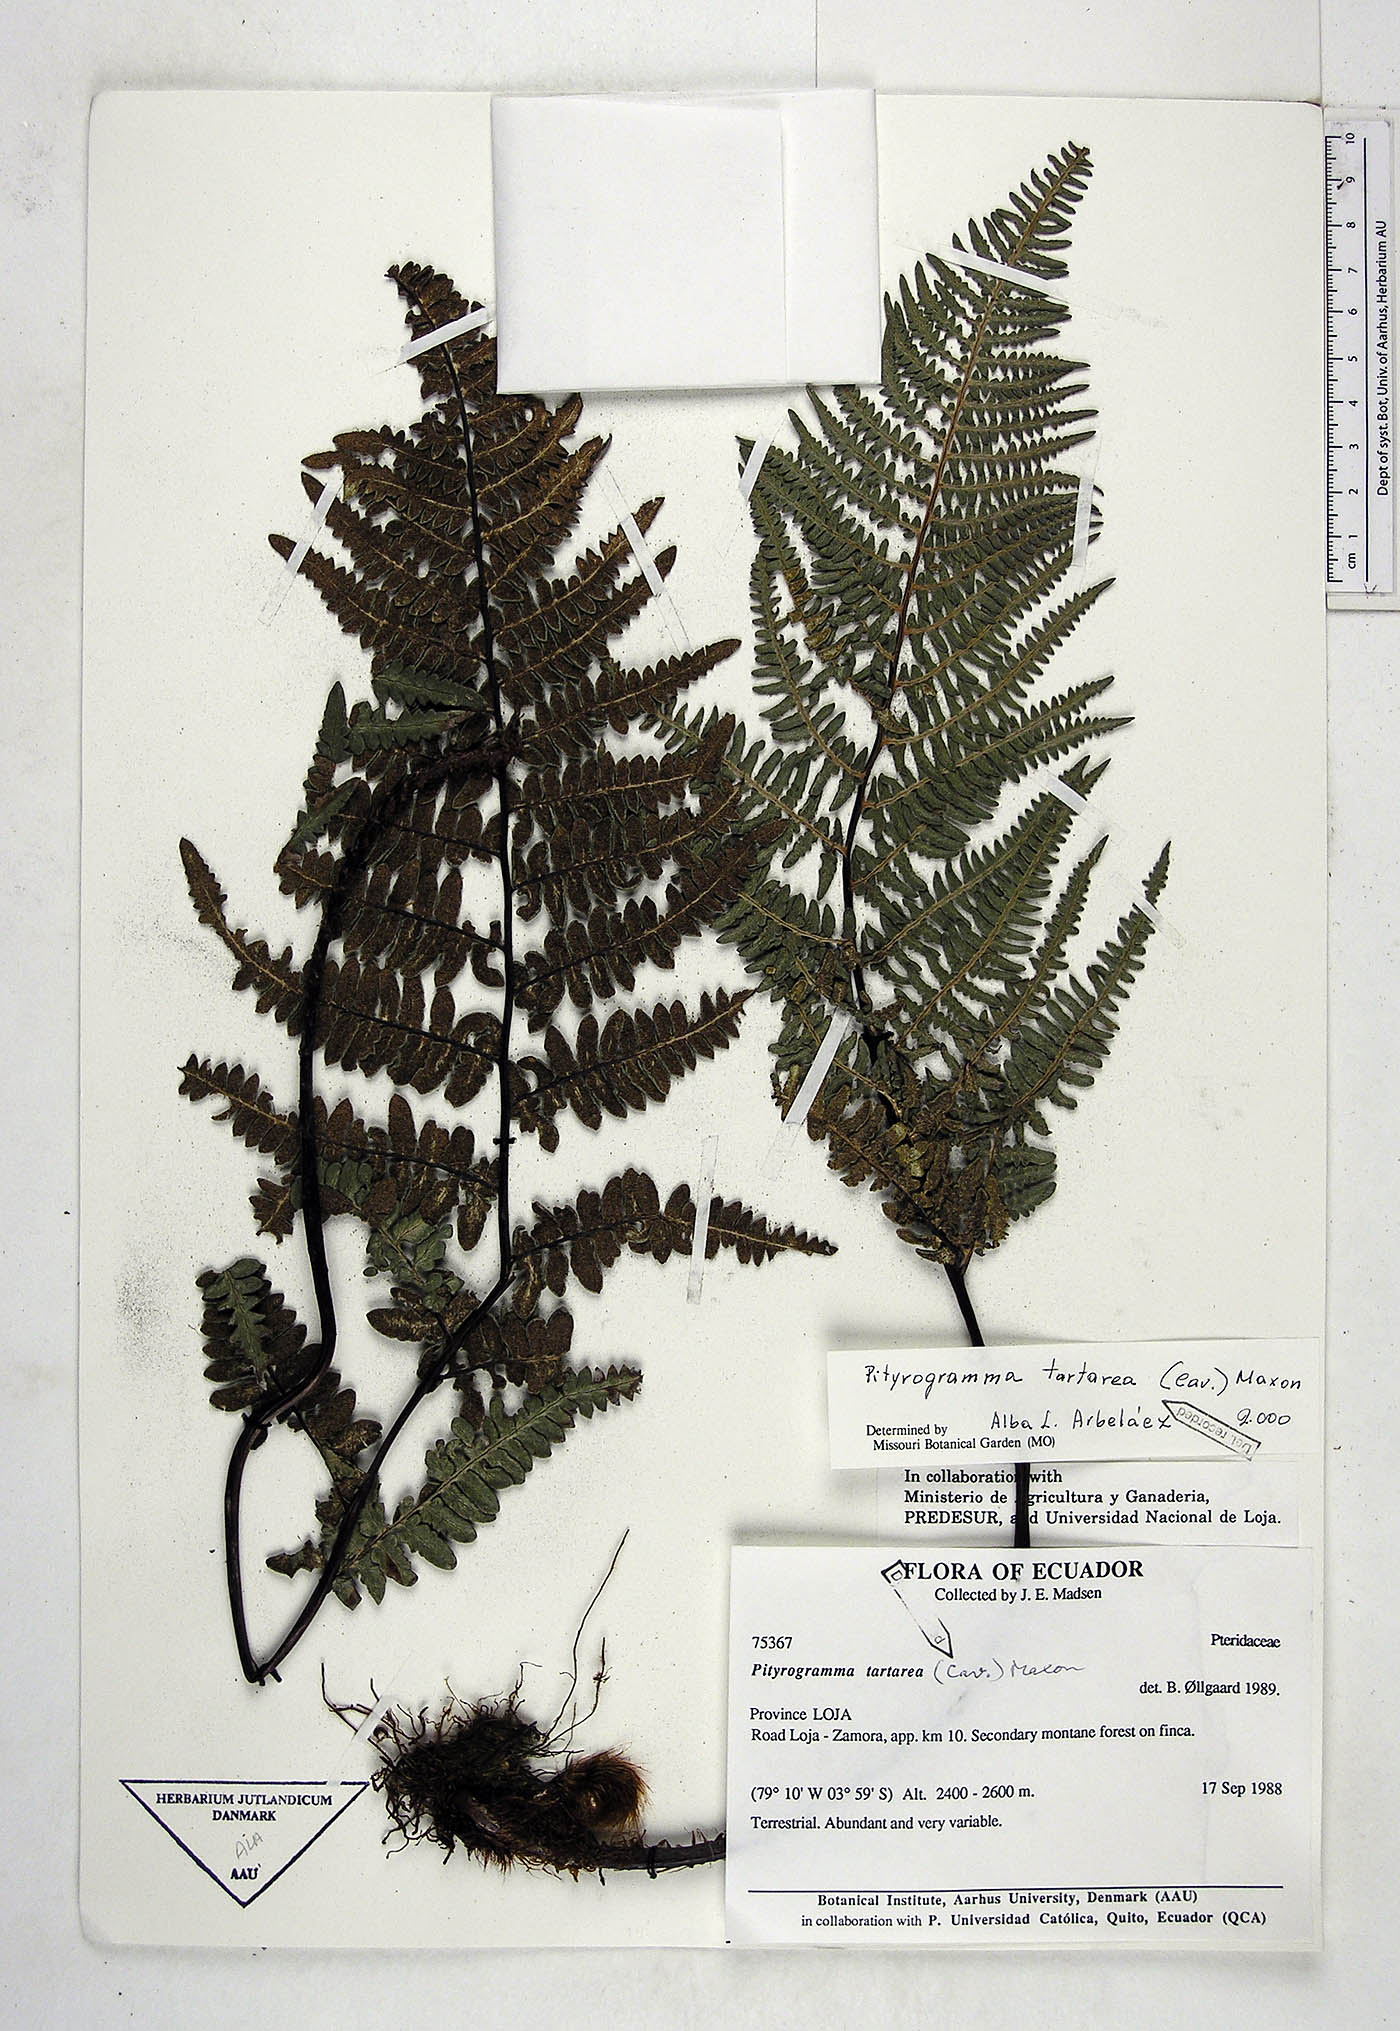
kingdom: Plantae
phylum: Tracheophyta
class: Polypodiopsida
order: Polypodiales
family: Pteridaceae
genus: Pityrogramma
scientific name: Pityrogramma ebenea
